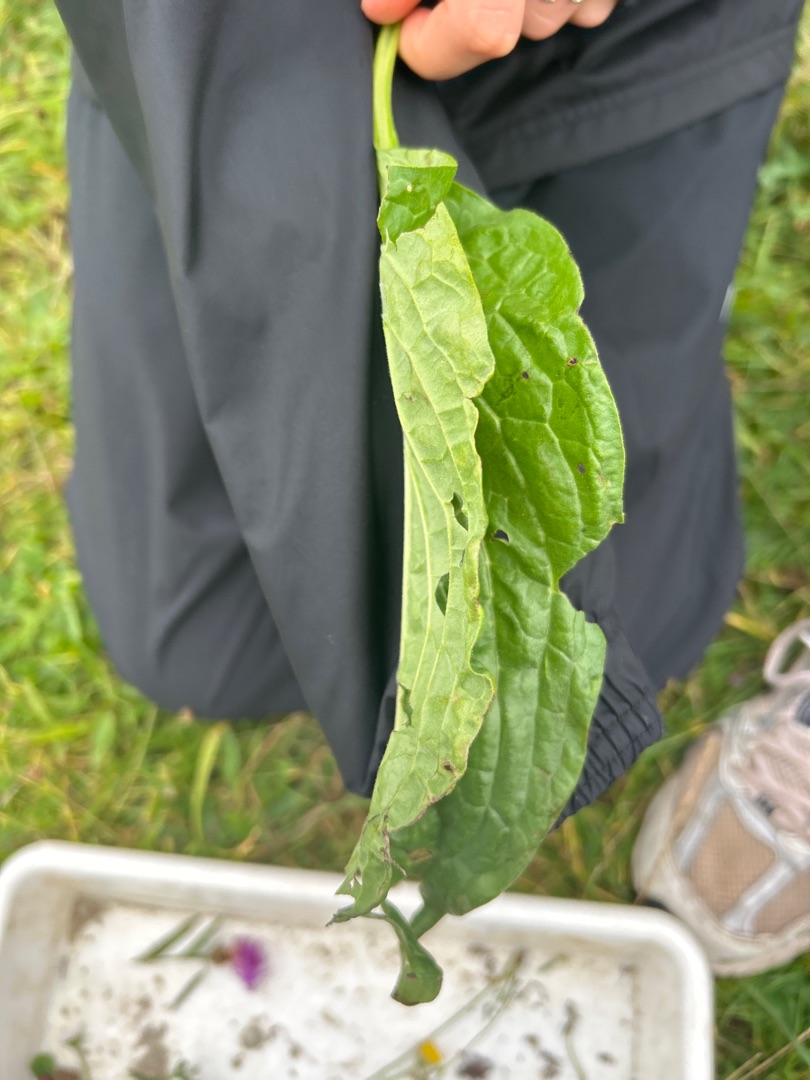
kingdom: Plantae
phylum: Tracheophyta
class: Magnoliopsida
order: Boraginales
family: Boraginaceae
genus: Cynoglossum
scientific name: Cynoglossum officinale
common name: Hundetunge
